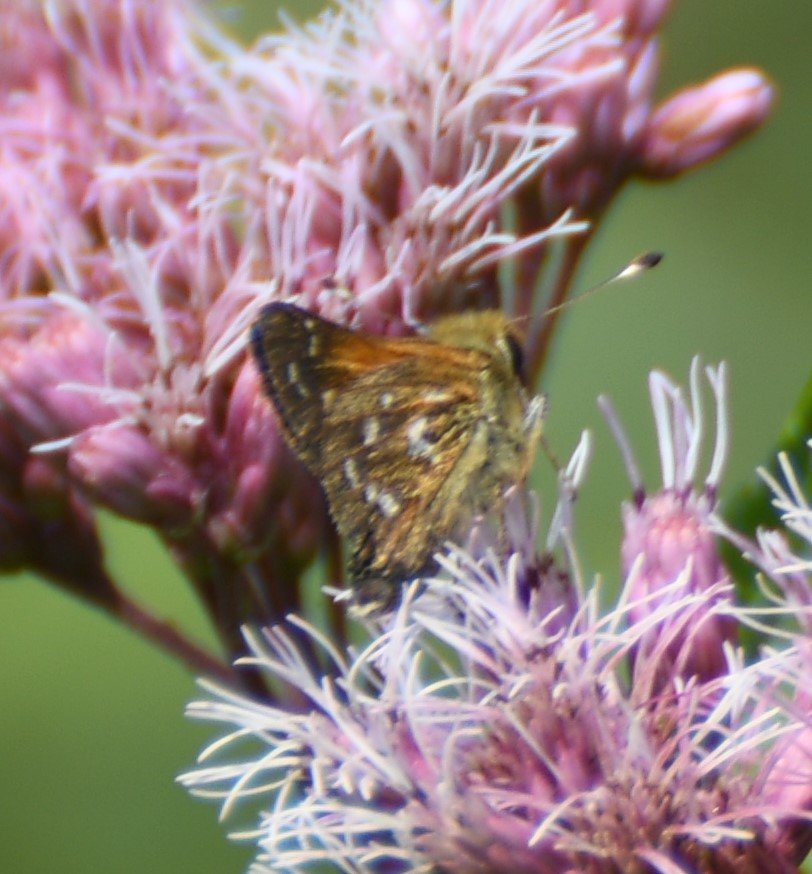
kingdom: Animalia
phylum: Arthropoda
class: Insecta
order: Lepidoptera
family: Hesperiidae
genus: Hesperia
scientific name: Hesperia comma
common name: Common Branded Skipper
